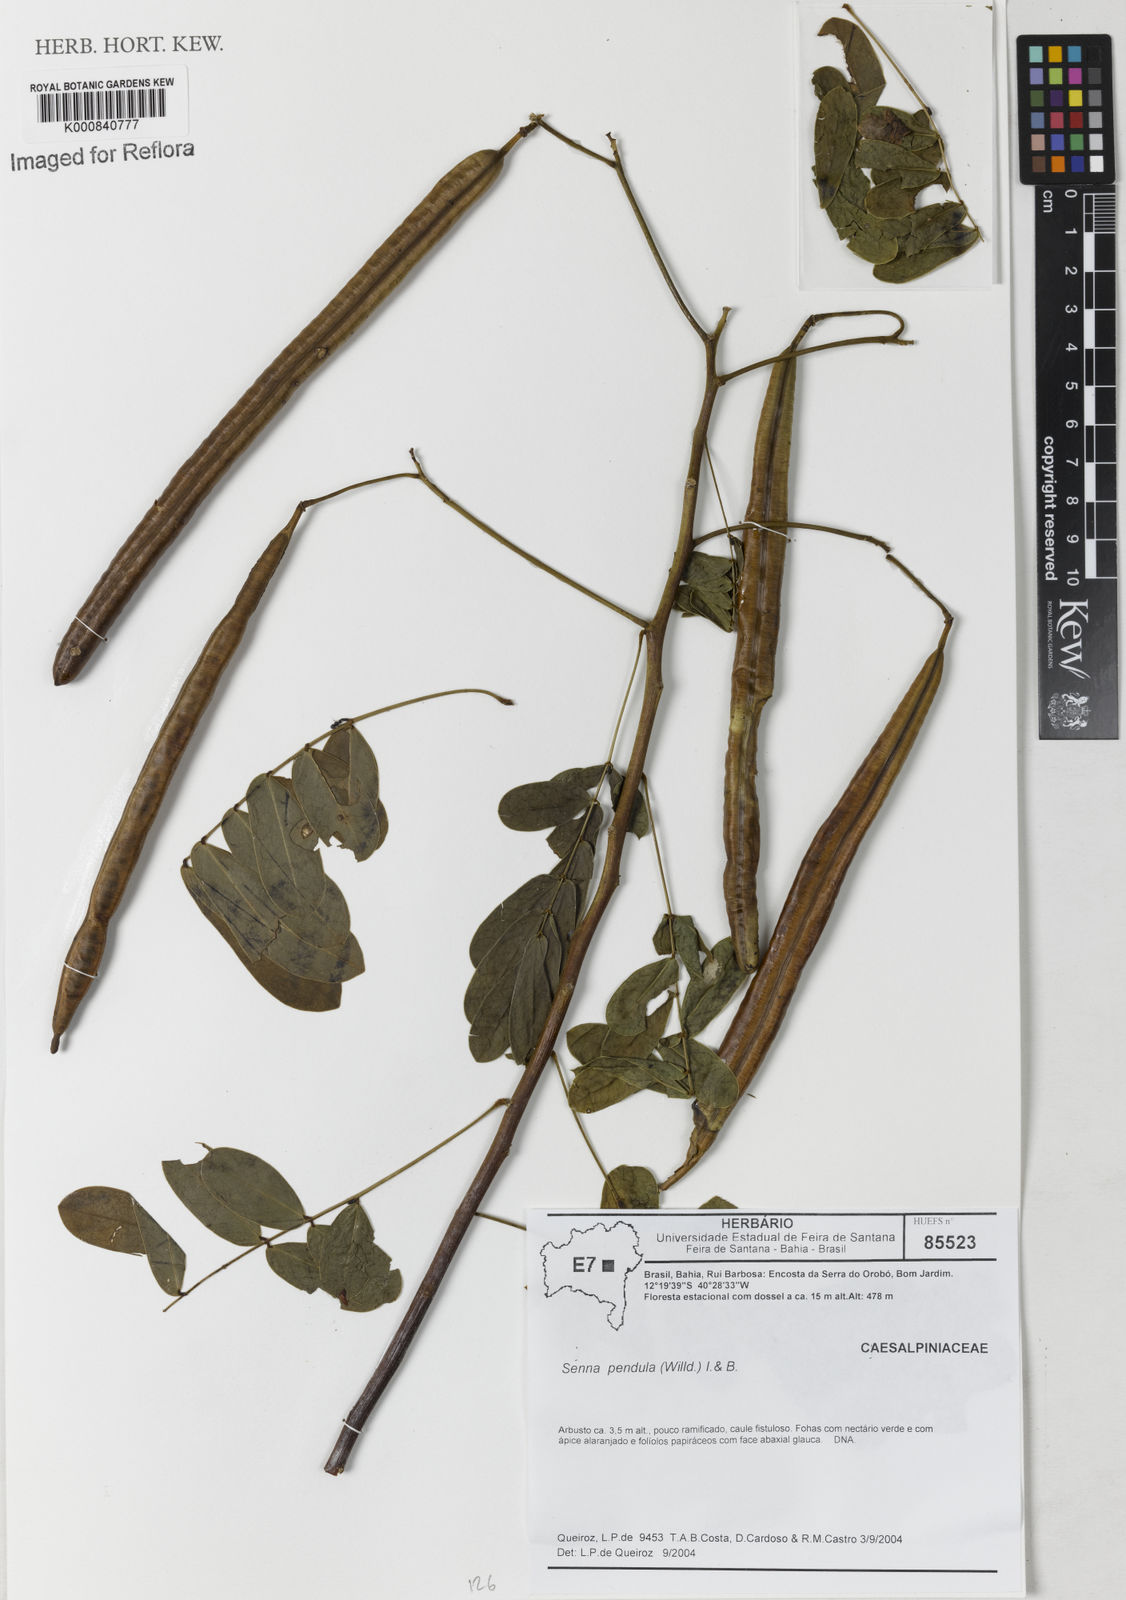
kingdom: Plantae
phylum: Tracheophyta
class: Magnoliopsida
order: Fabales
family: Fabaceae
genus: Senna
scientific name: Senna pendula
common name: Easter cassia
